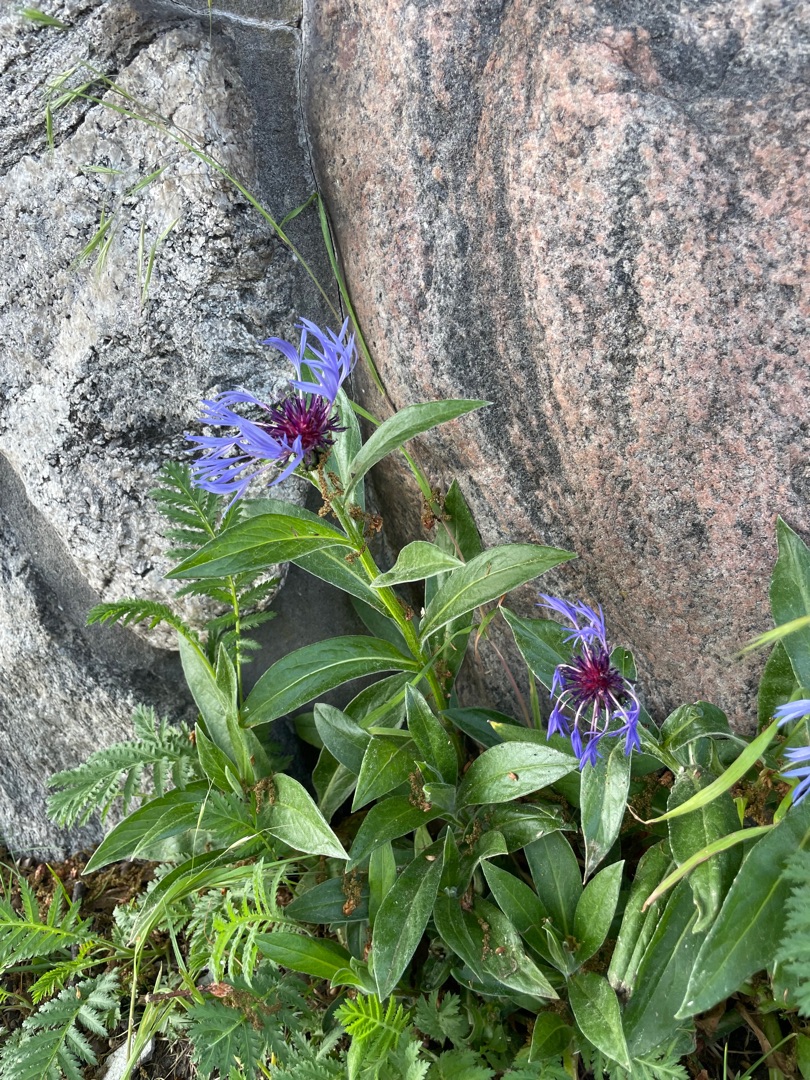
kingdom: Plantae
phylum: Tracheophyta
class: Magnoliopsida
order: Asterales
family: Asteraceae
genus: Centaurea
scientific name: Centaurea montana
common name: Bjerg-knopurt
